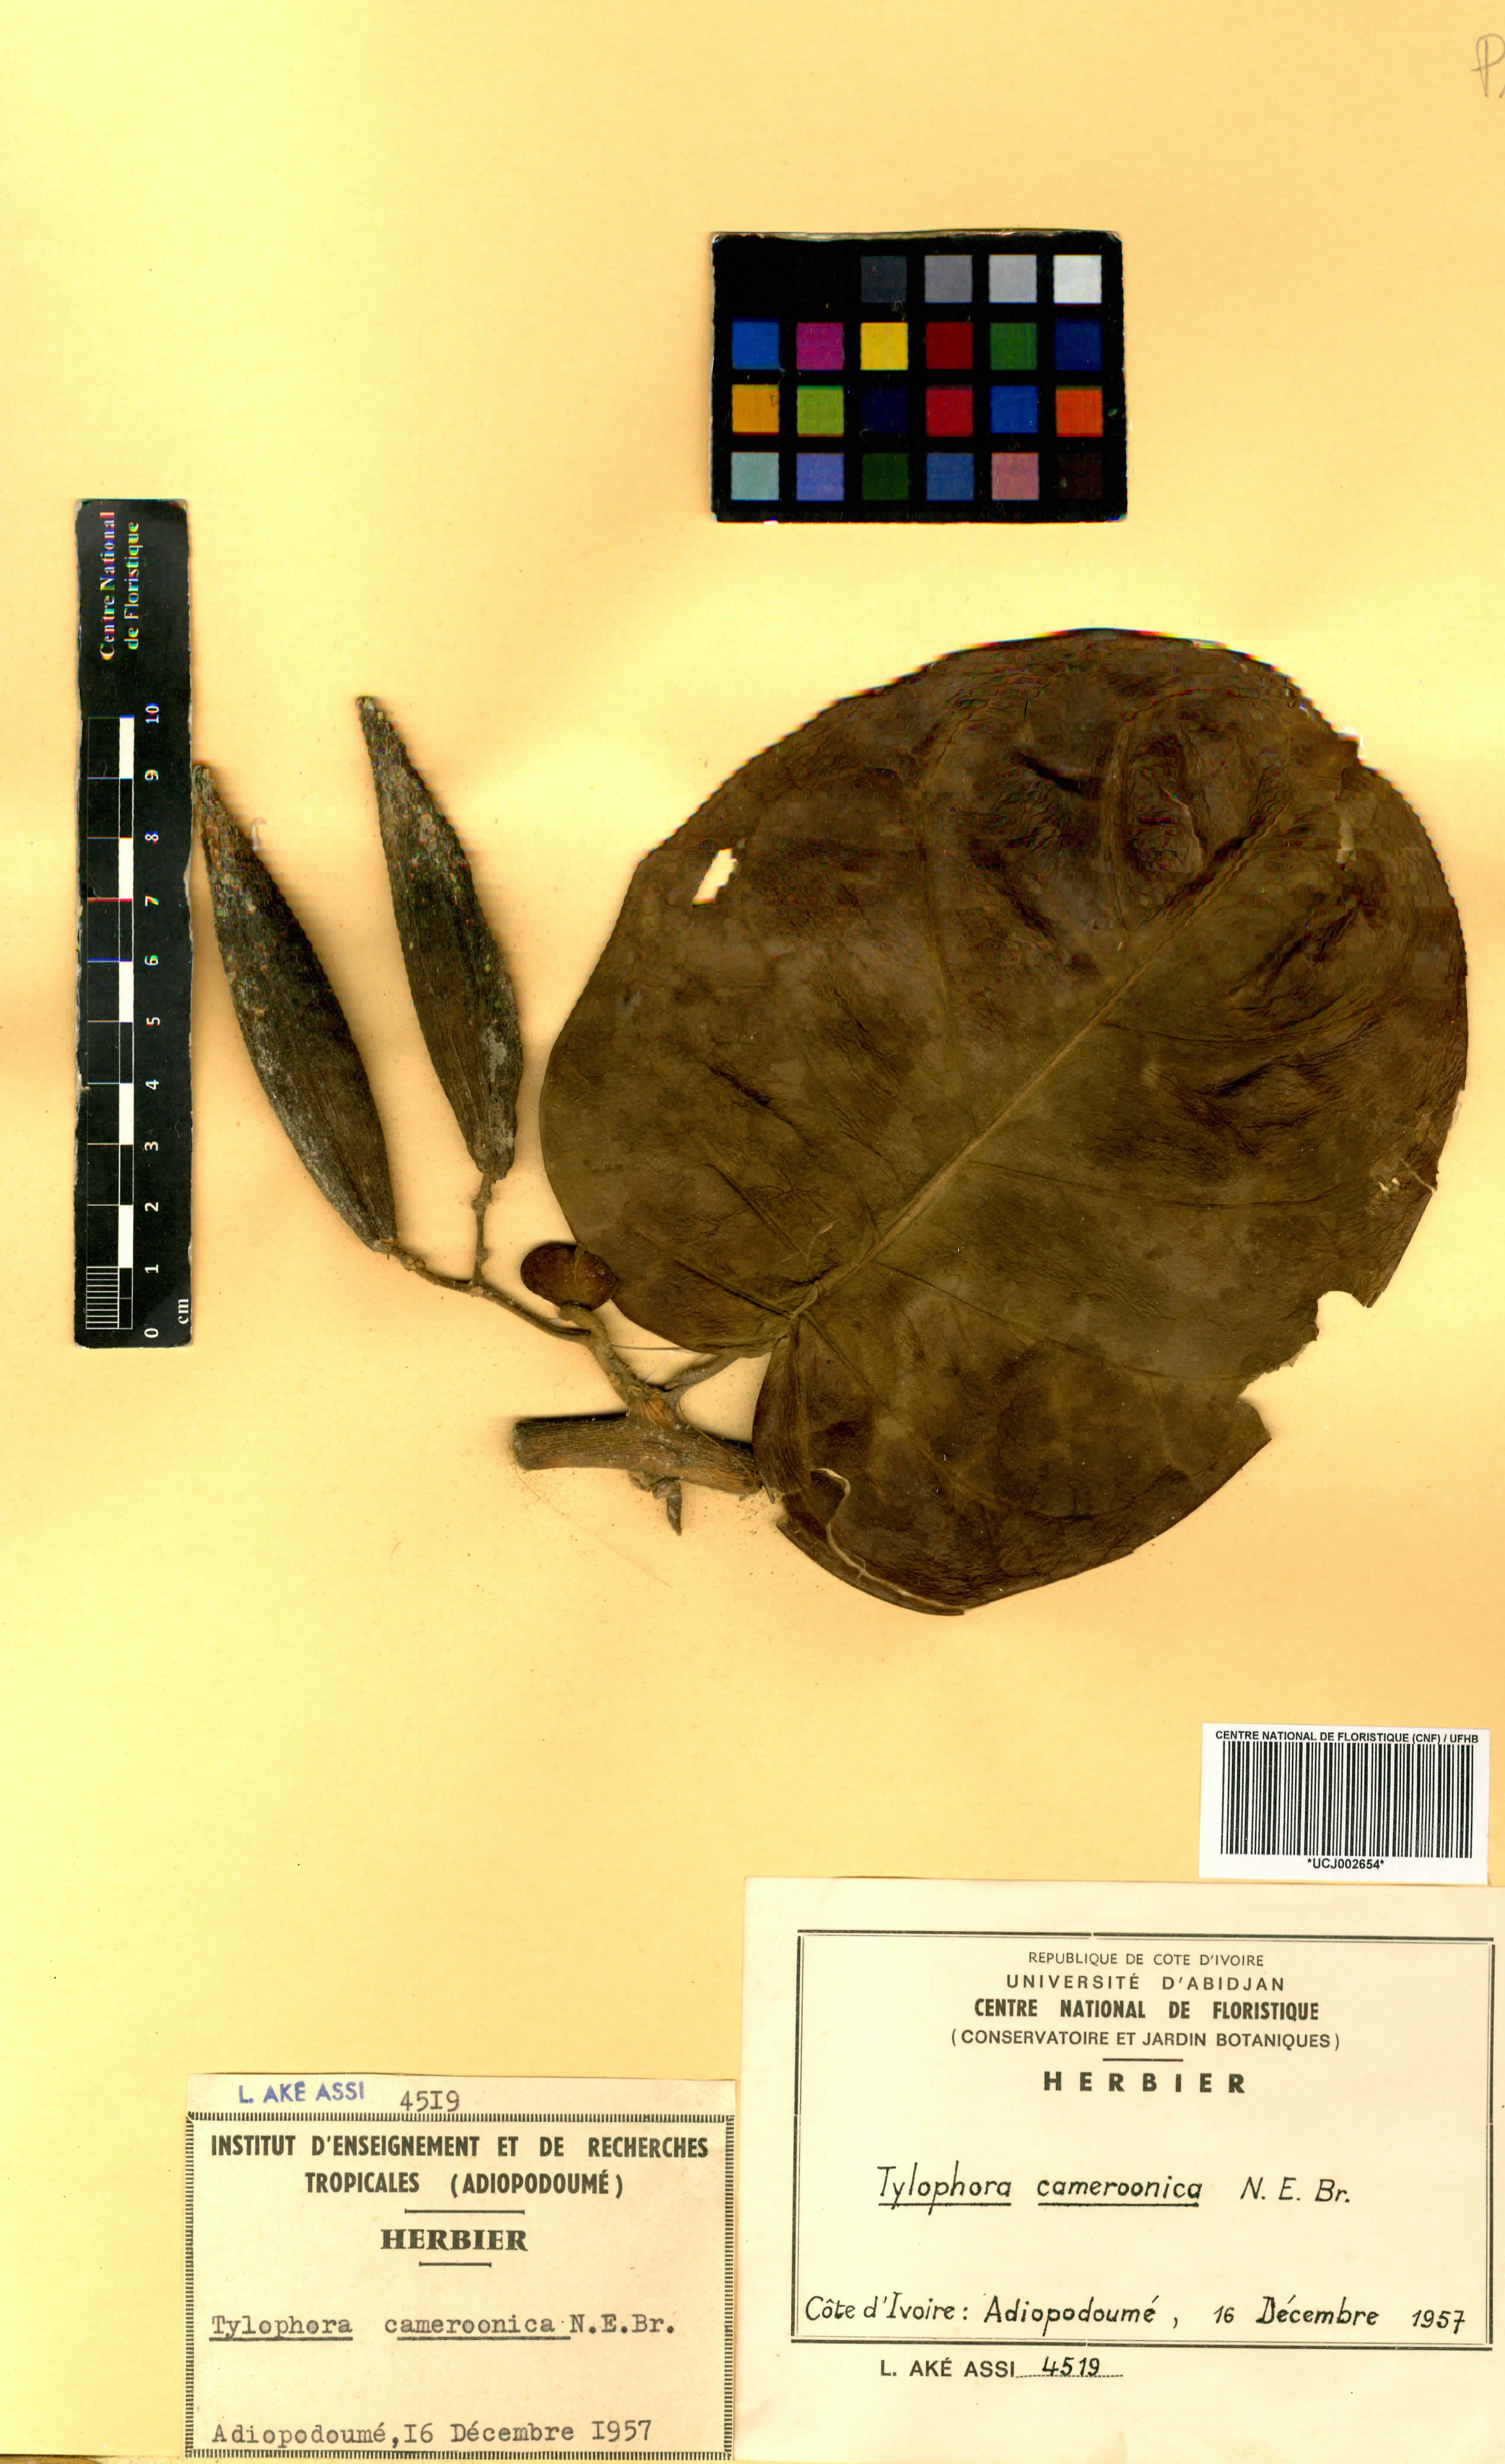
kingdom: Plantae
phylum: Tracheophyta
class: Magnoliopsida
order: Gentianales
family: Apocynaceae
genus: Vincetoxicum
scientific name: Vincetoxicum cameroonicum
